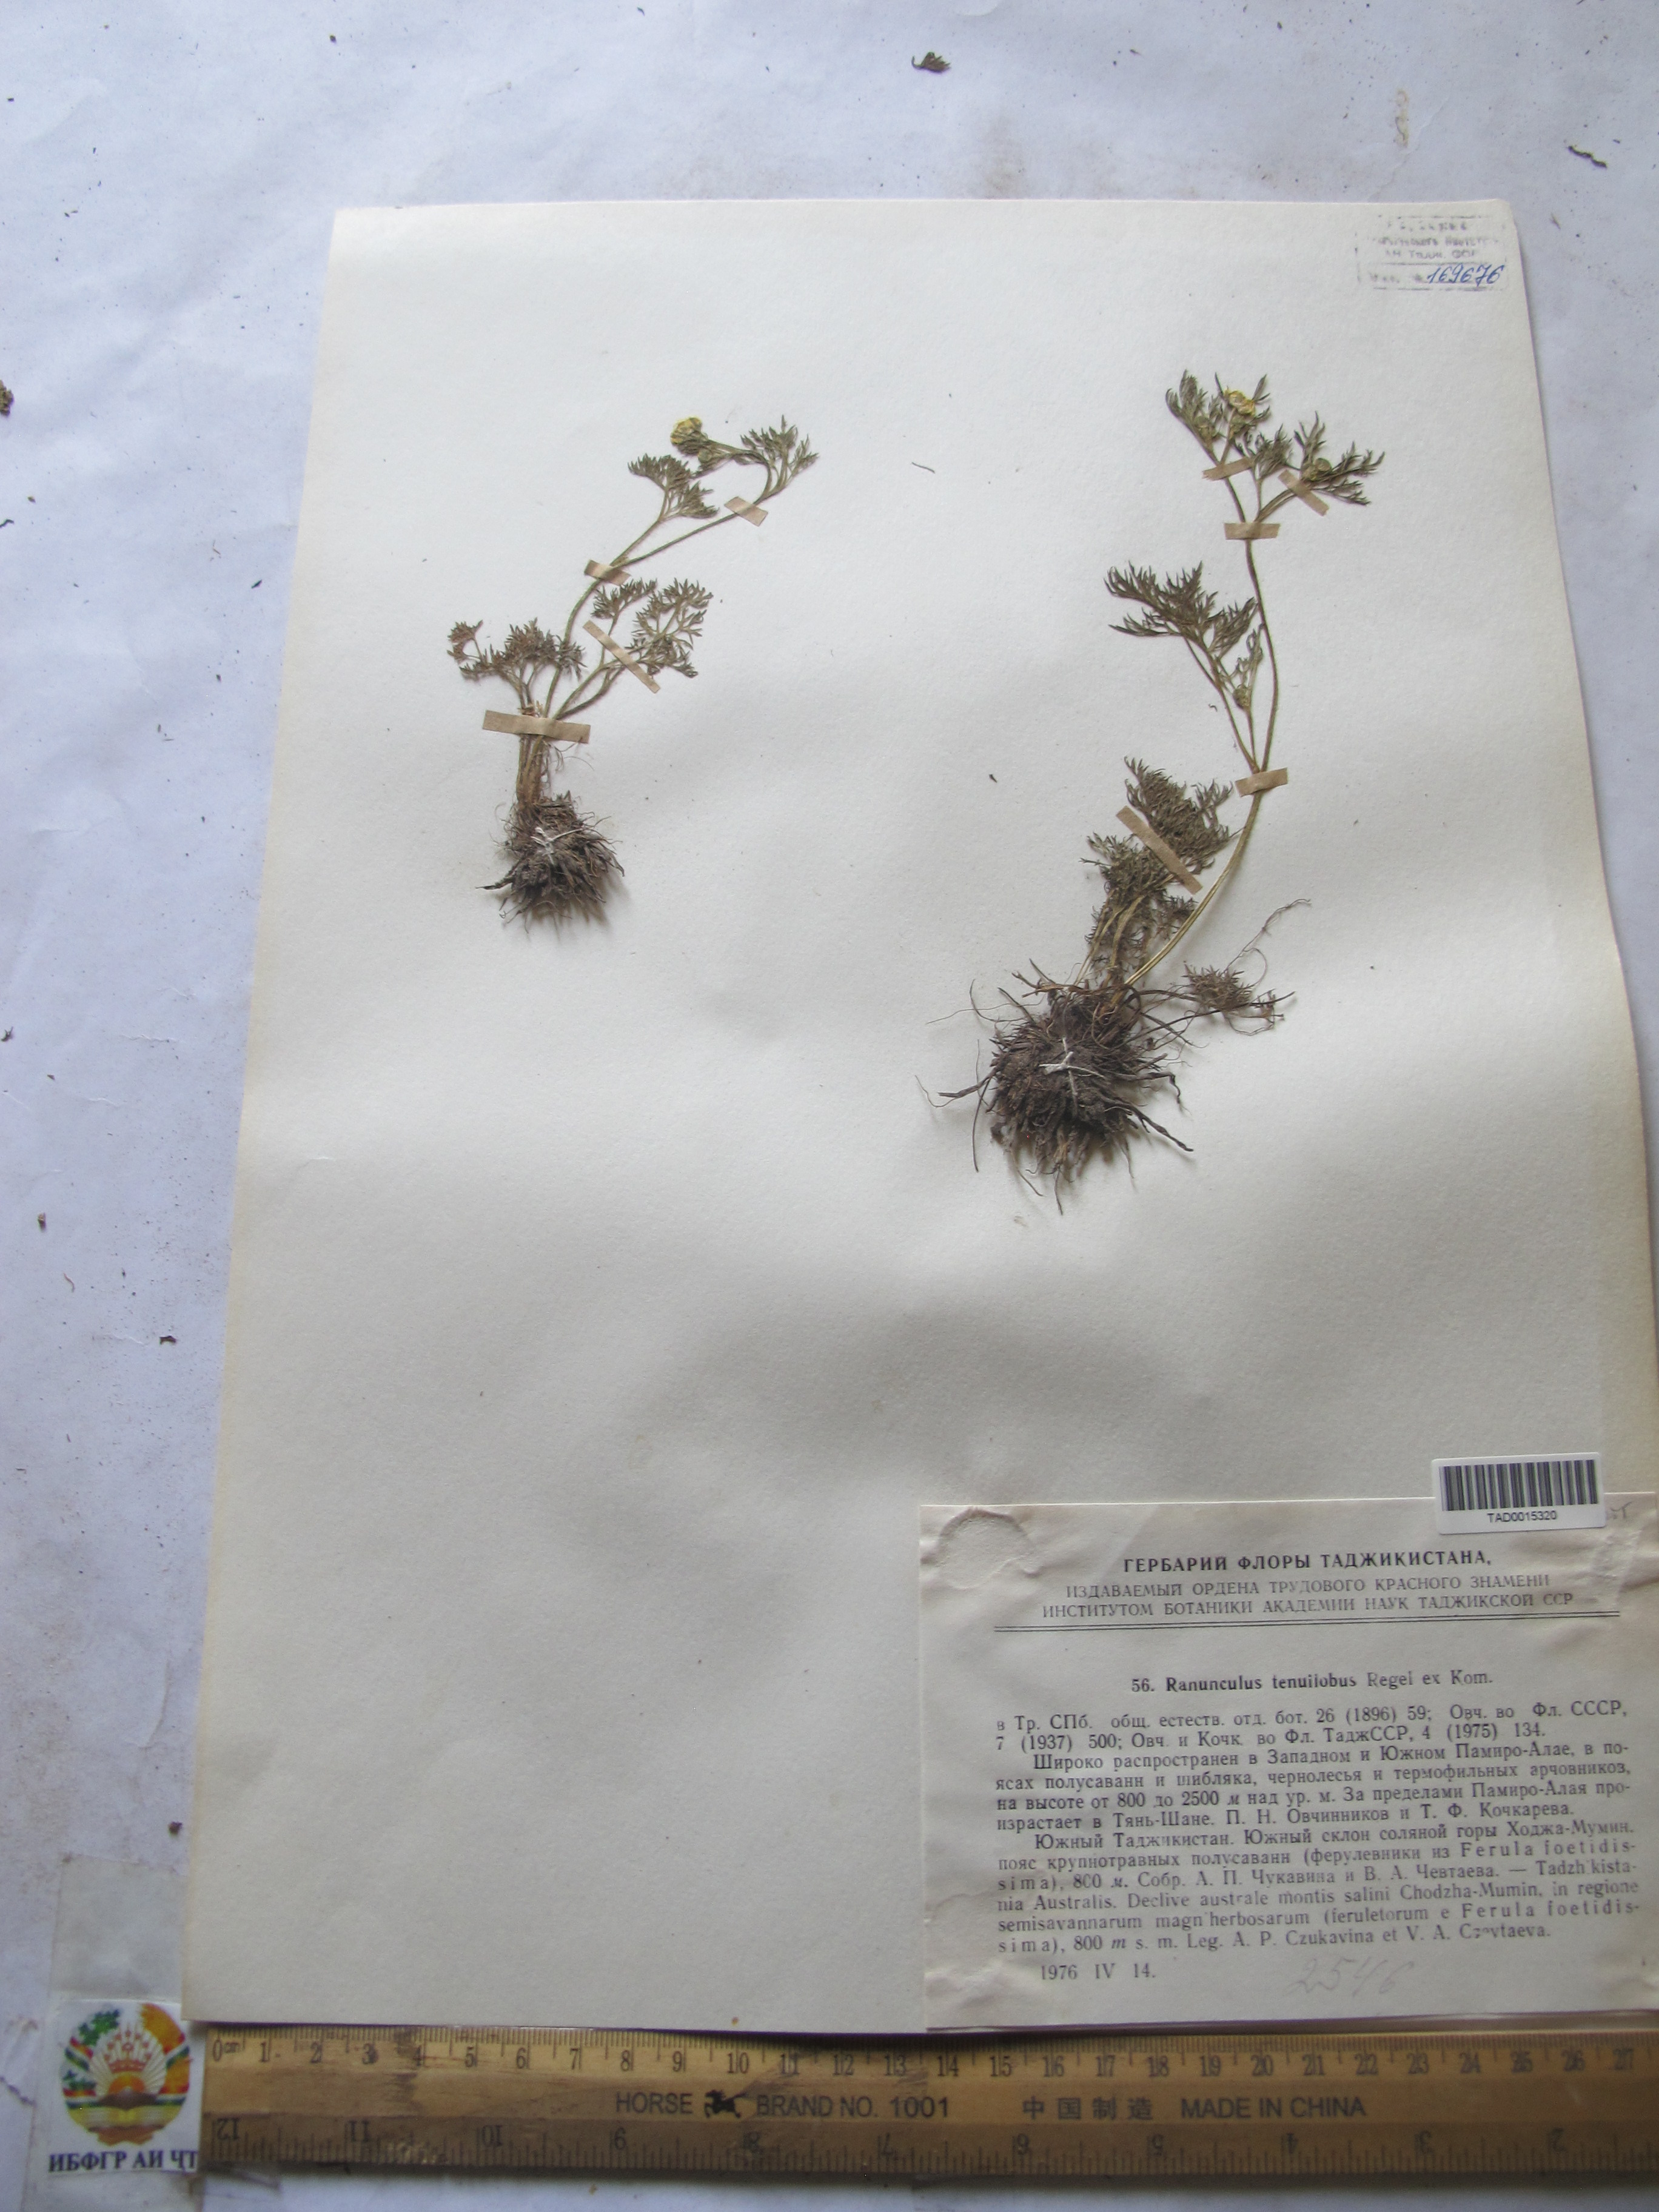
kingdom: Plantae
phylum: Tracheophyta
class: Magnoliopsida
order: Ranunculales
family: Ranunculaceae
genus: Ranunculus
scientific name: Ranunculus tenuilobus
